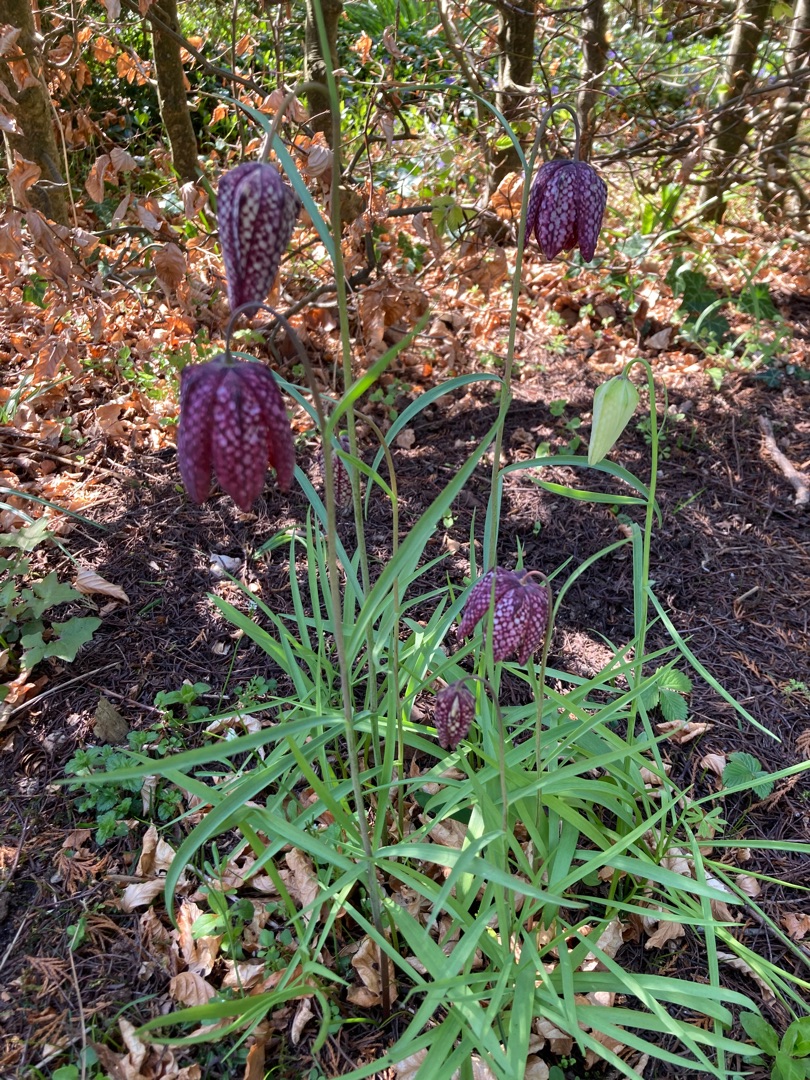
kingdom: Animalia
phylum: Arthropoda
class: Insecta
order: Diptera
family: Bombyliidae
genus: Bombylius
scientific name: Bombylius major
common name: Stor humleflue
